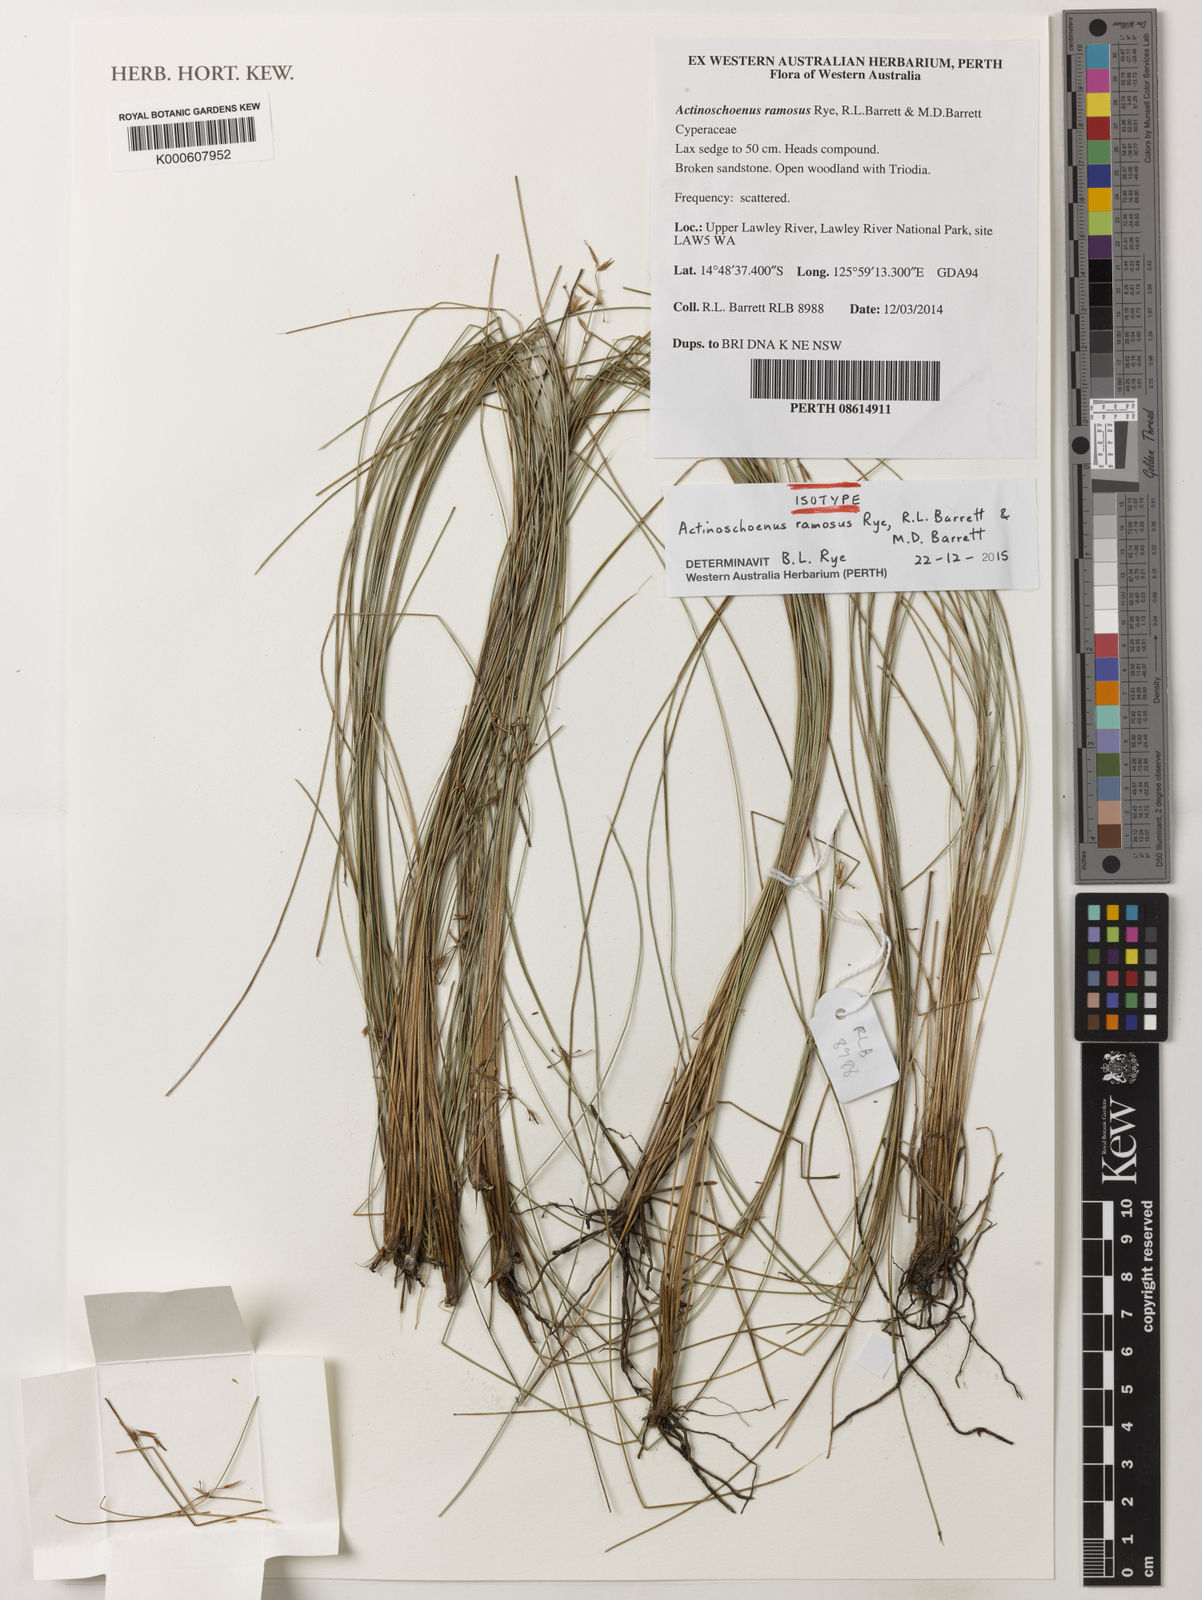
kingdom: Plantae
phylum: Tracheophyta
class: Liliopsida
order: Poales
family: Cyperaceae
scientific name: Cyperaceae
